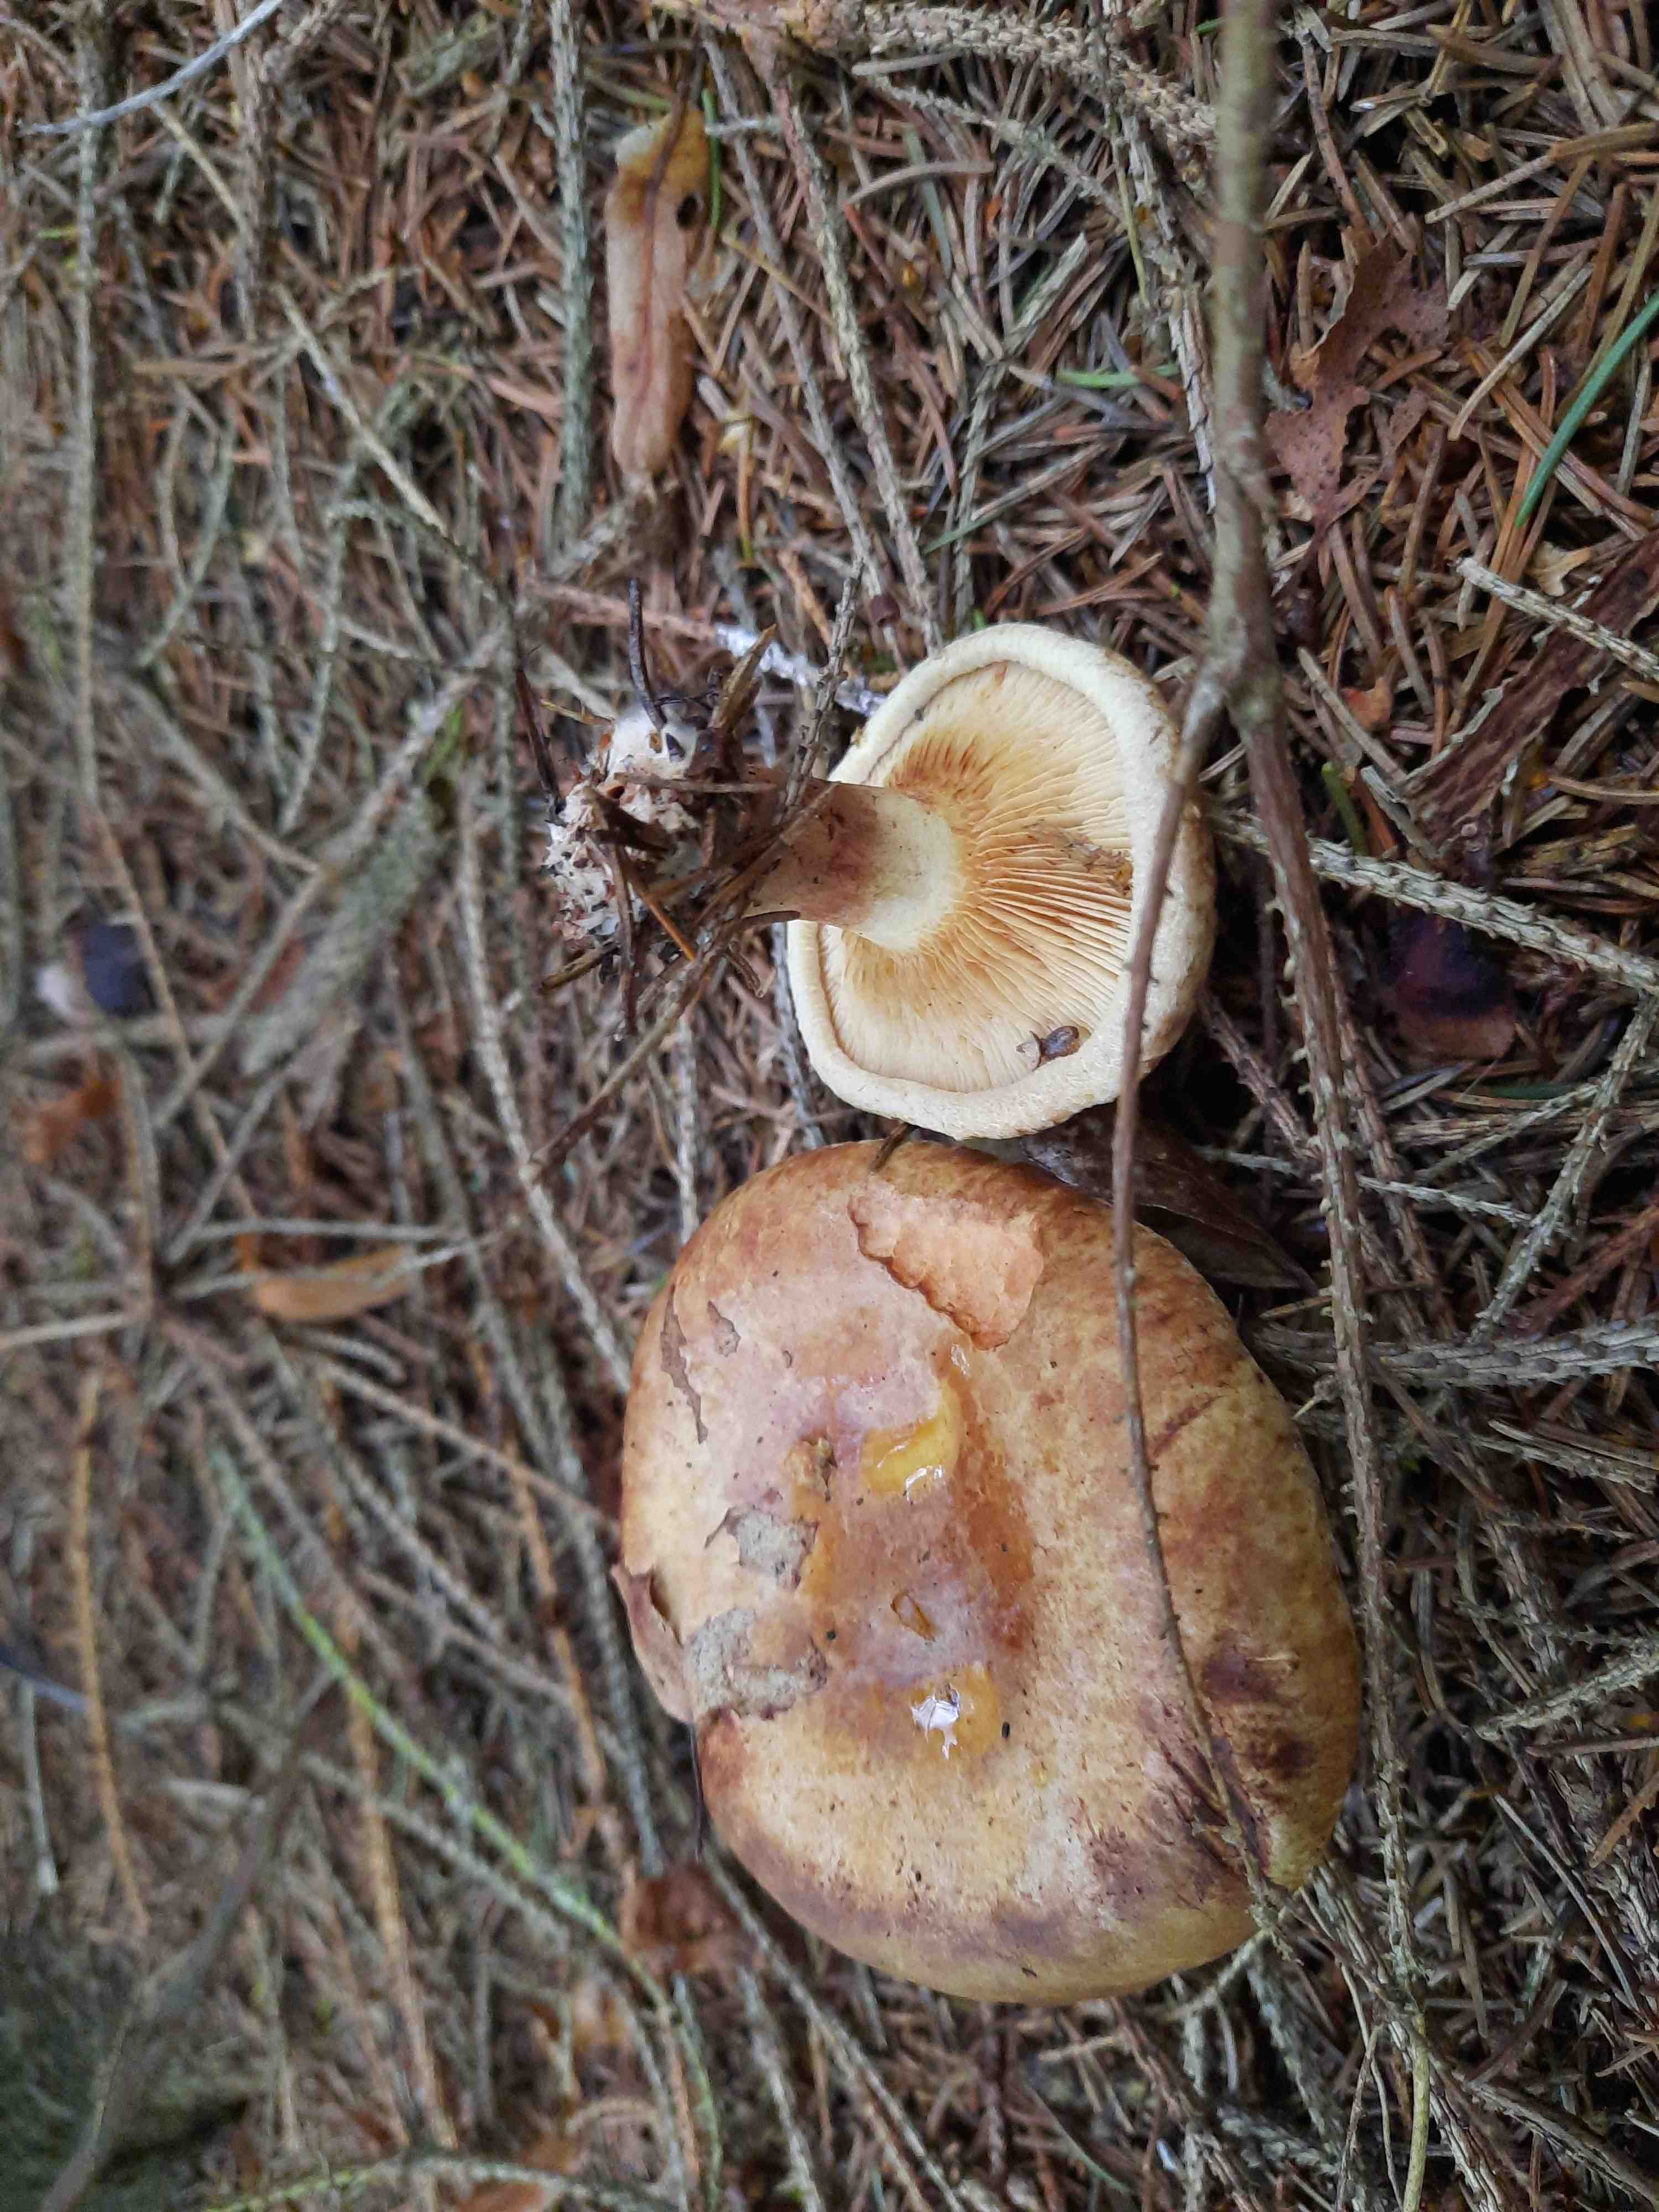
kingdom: Fungi
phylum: Basidiomycota
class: Agaricomycetes
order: Boletales
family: Paxillaceae
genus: Paxillus
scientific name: Paxillus involutus
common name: almindelig netbladhat
